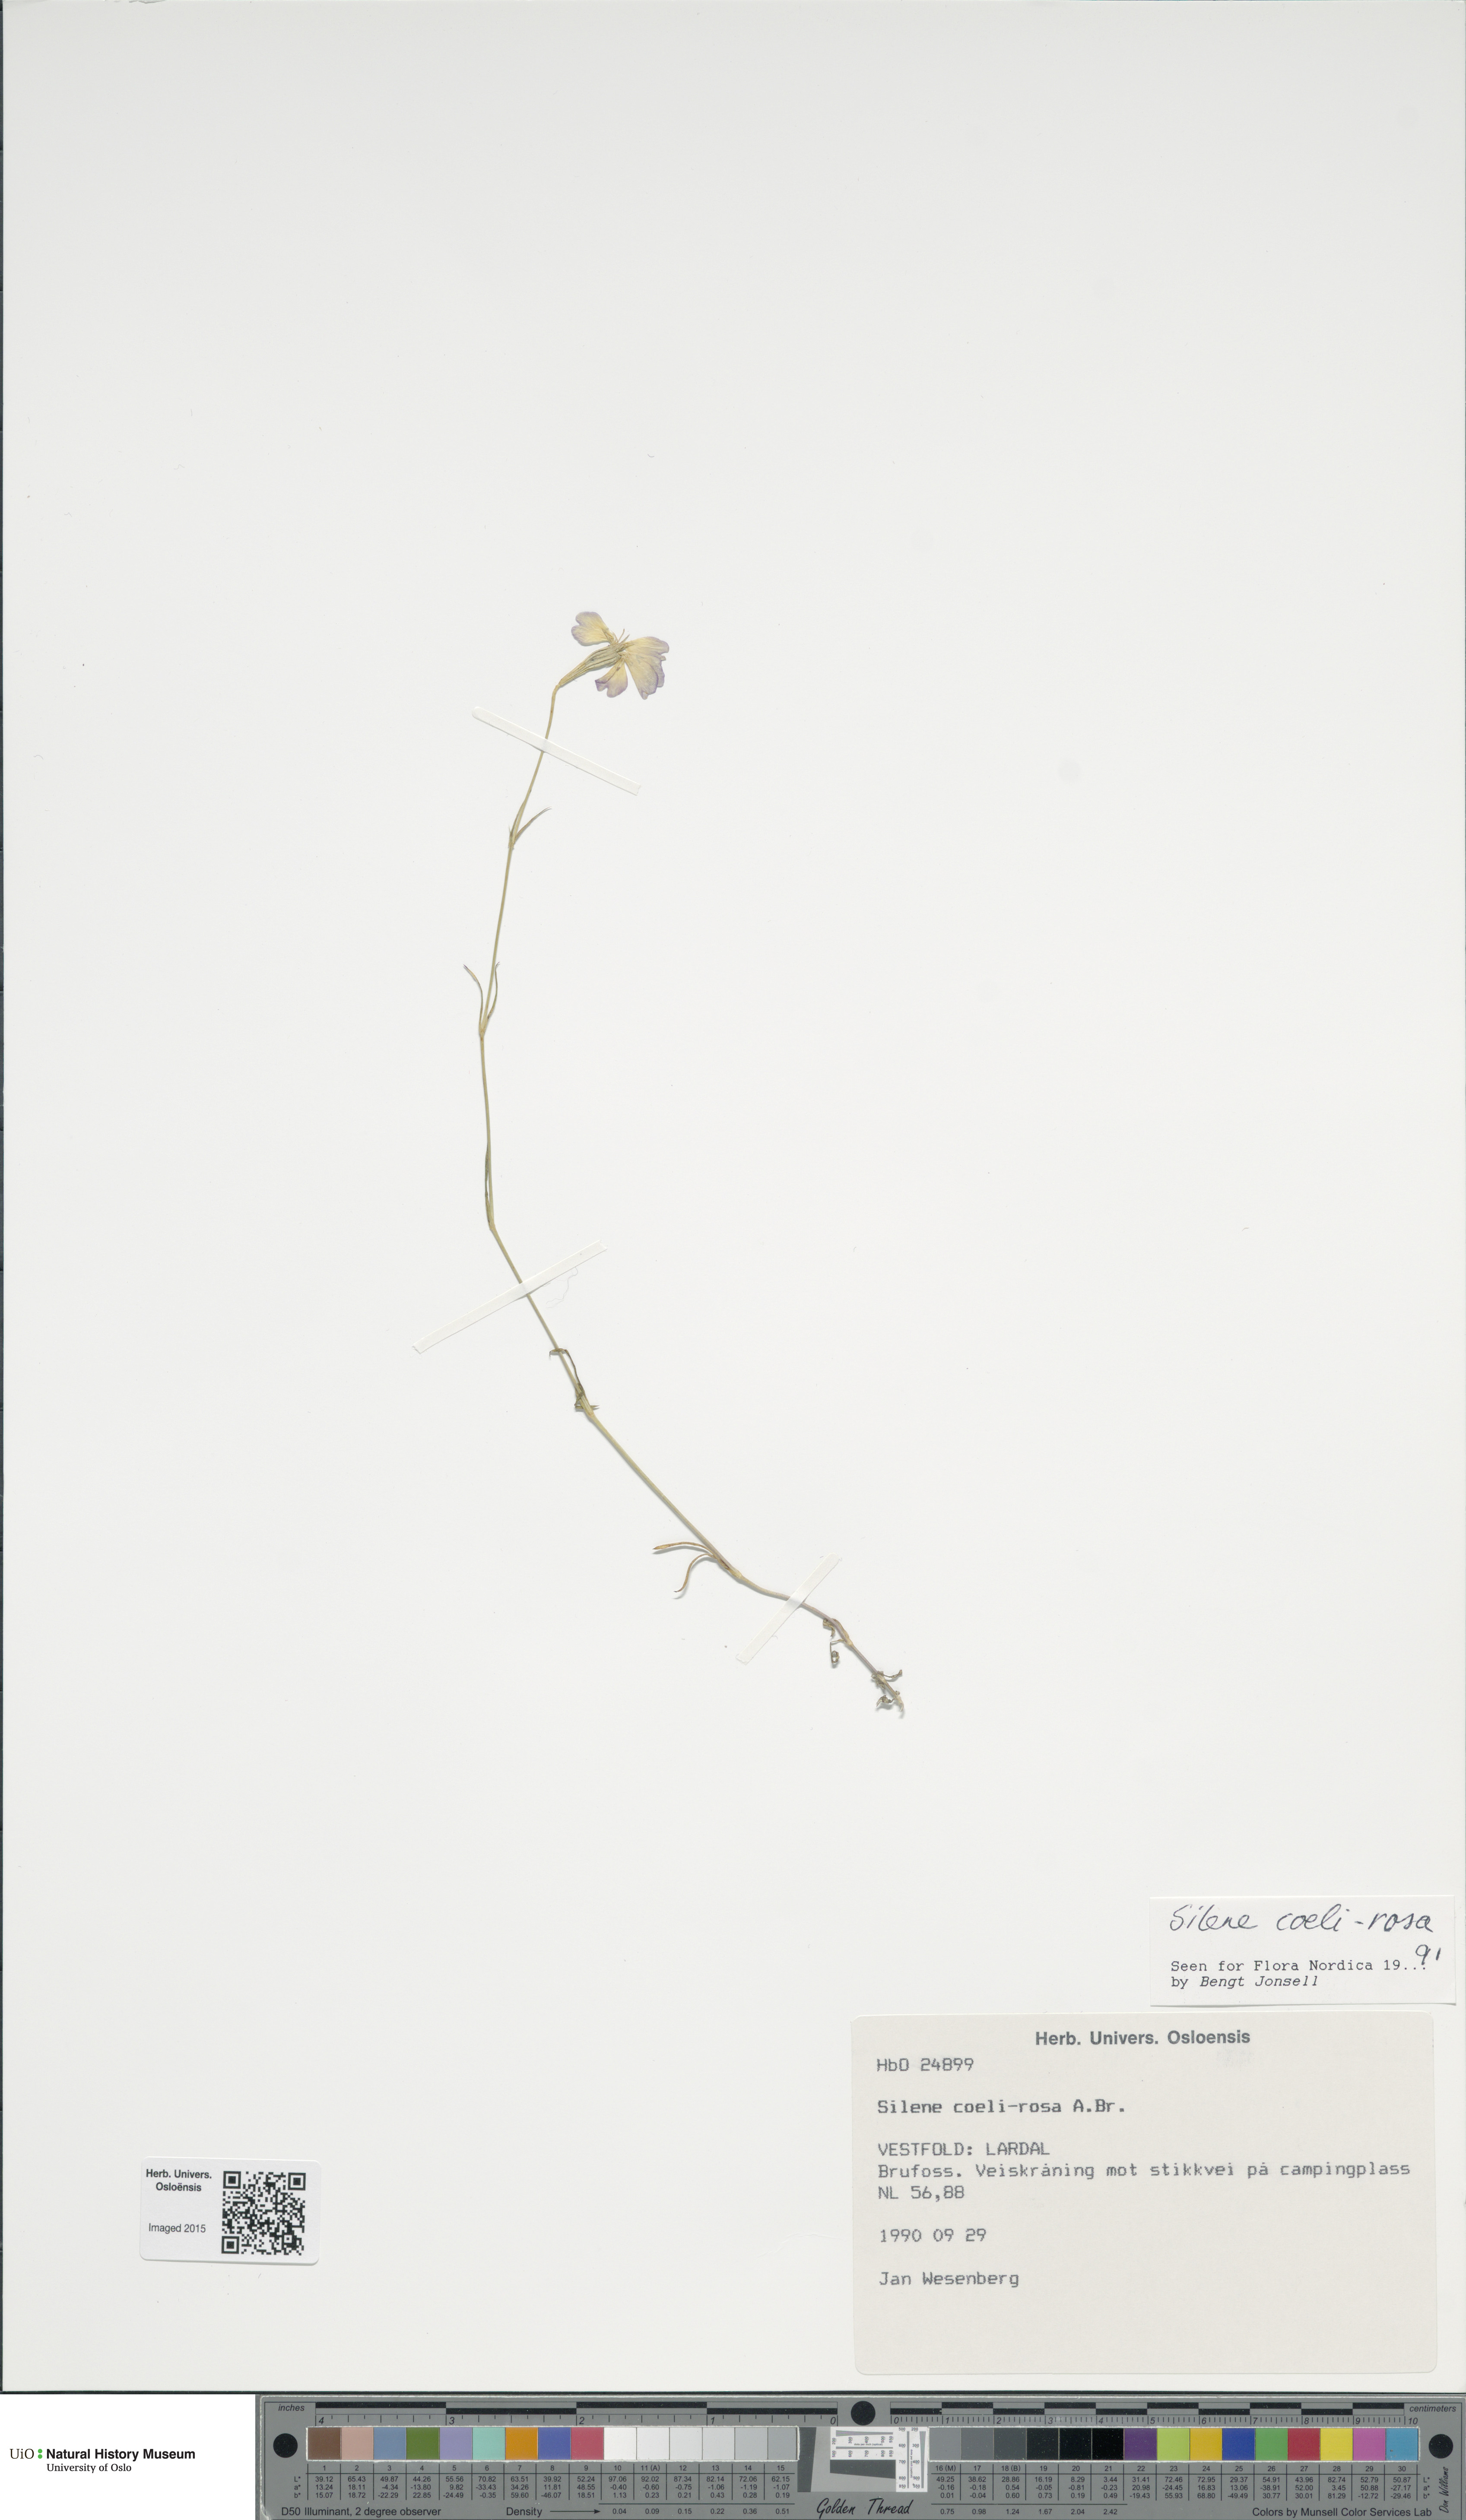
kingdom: Plantae
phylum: Tracheophyta
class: Magnoliopsida
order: Caryophyllales
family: Caryophyllaceae
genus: Eudianthe
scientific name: Eudianthe coeli-rosa
